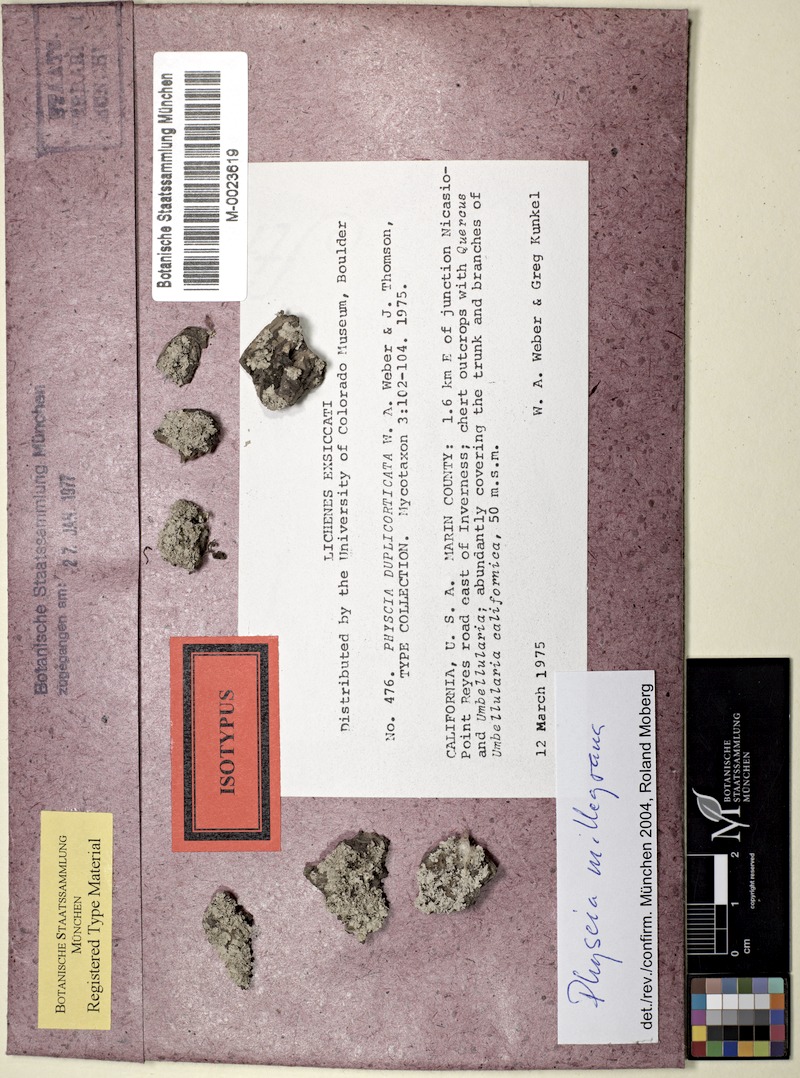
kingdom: Fungi
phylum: Ascomycota
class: Lecanoromycetes
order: Caliciales
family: Physciaceae
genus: Physcia
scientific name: Physcia millegrana
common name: Rosette lichen
